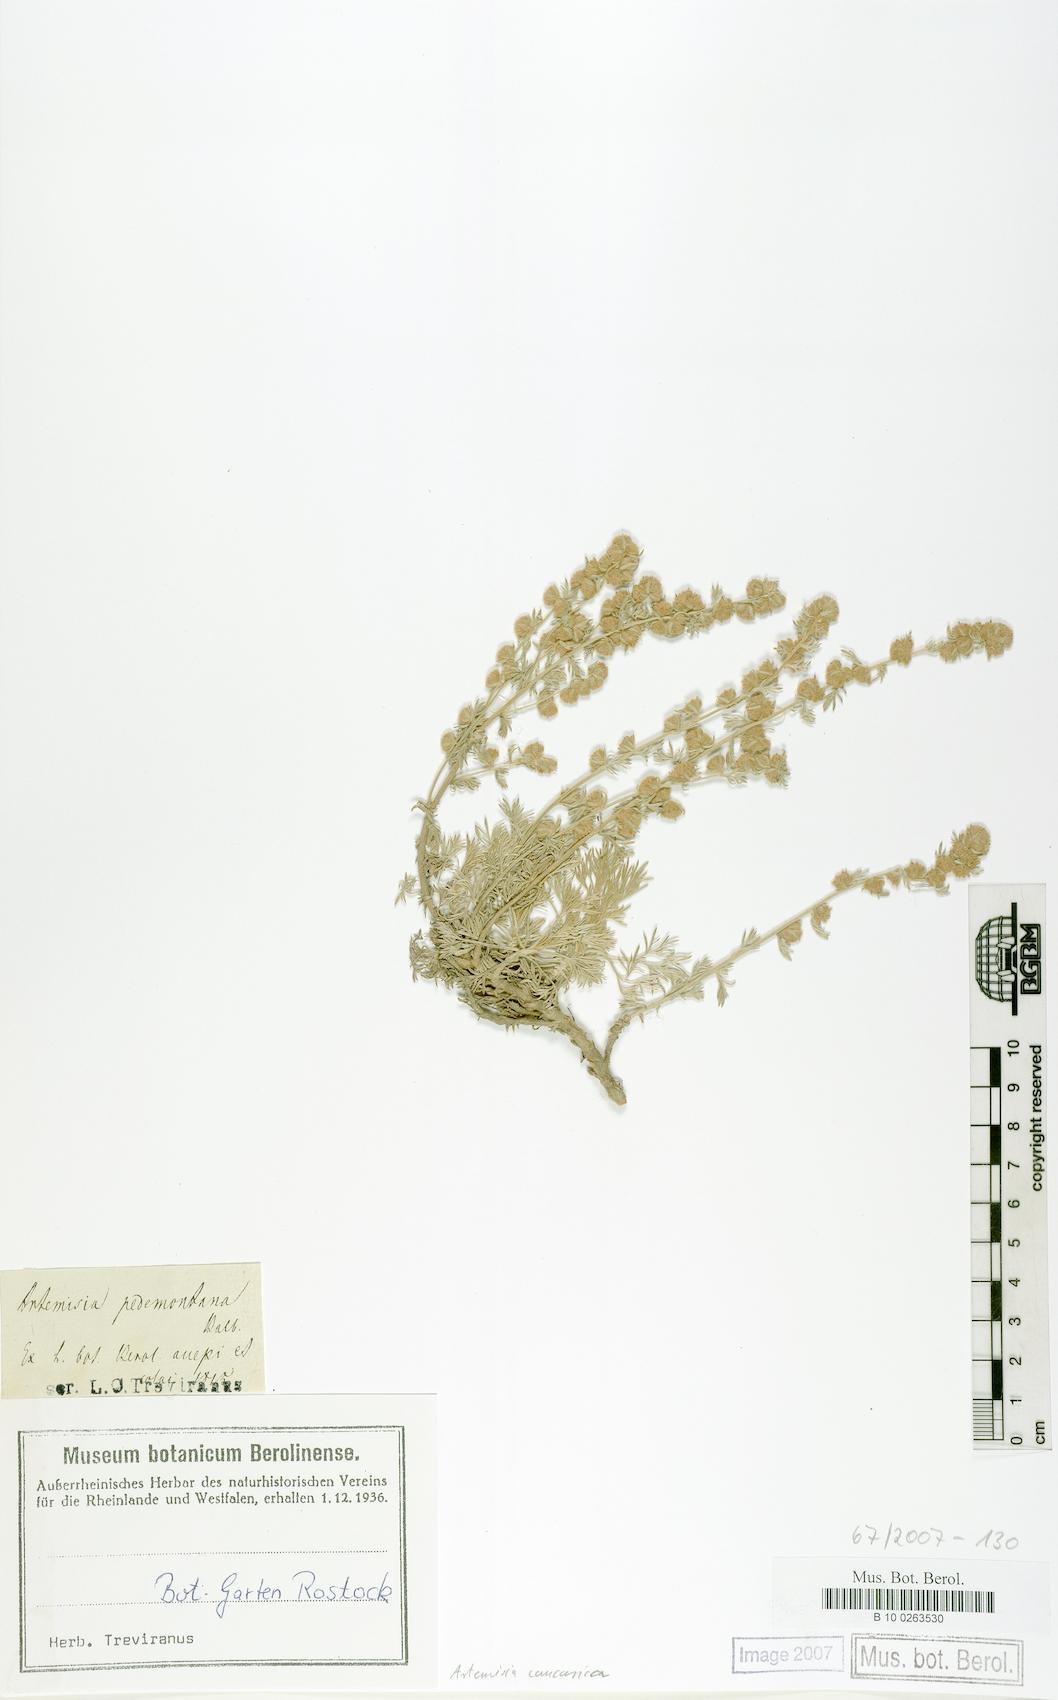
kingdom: Plantae
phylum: Tracheophyta
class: Magnoliopsida
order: Asterales
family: Asteraceae
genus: Artemisia
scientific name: Artemisia alpina
